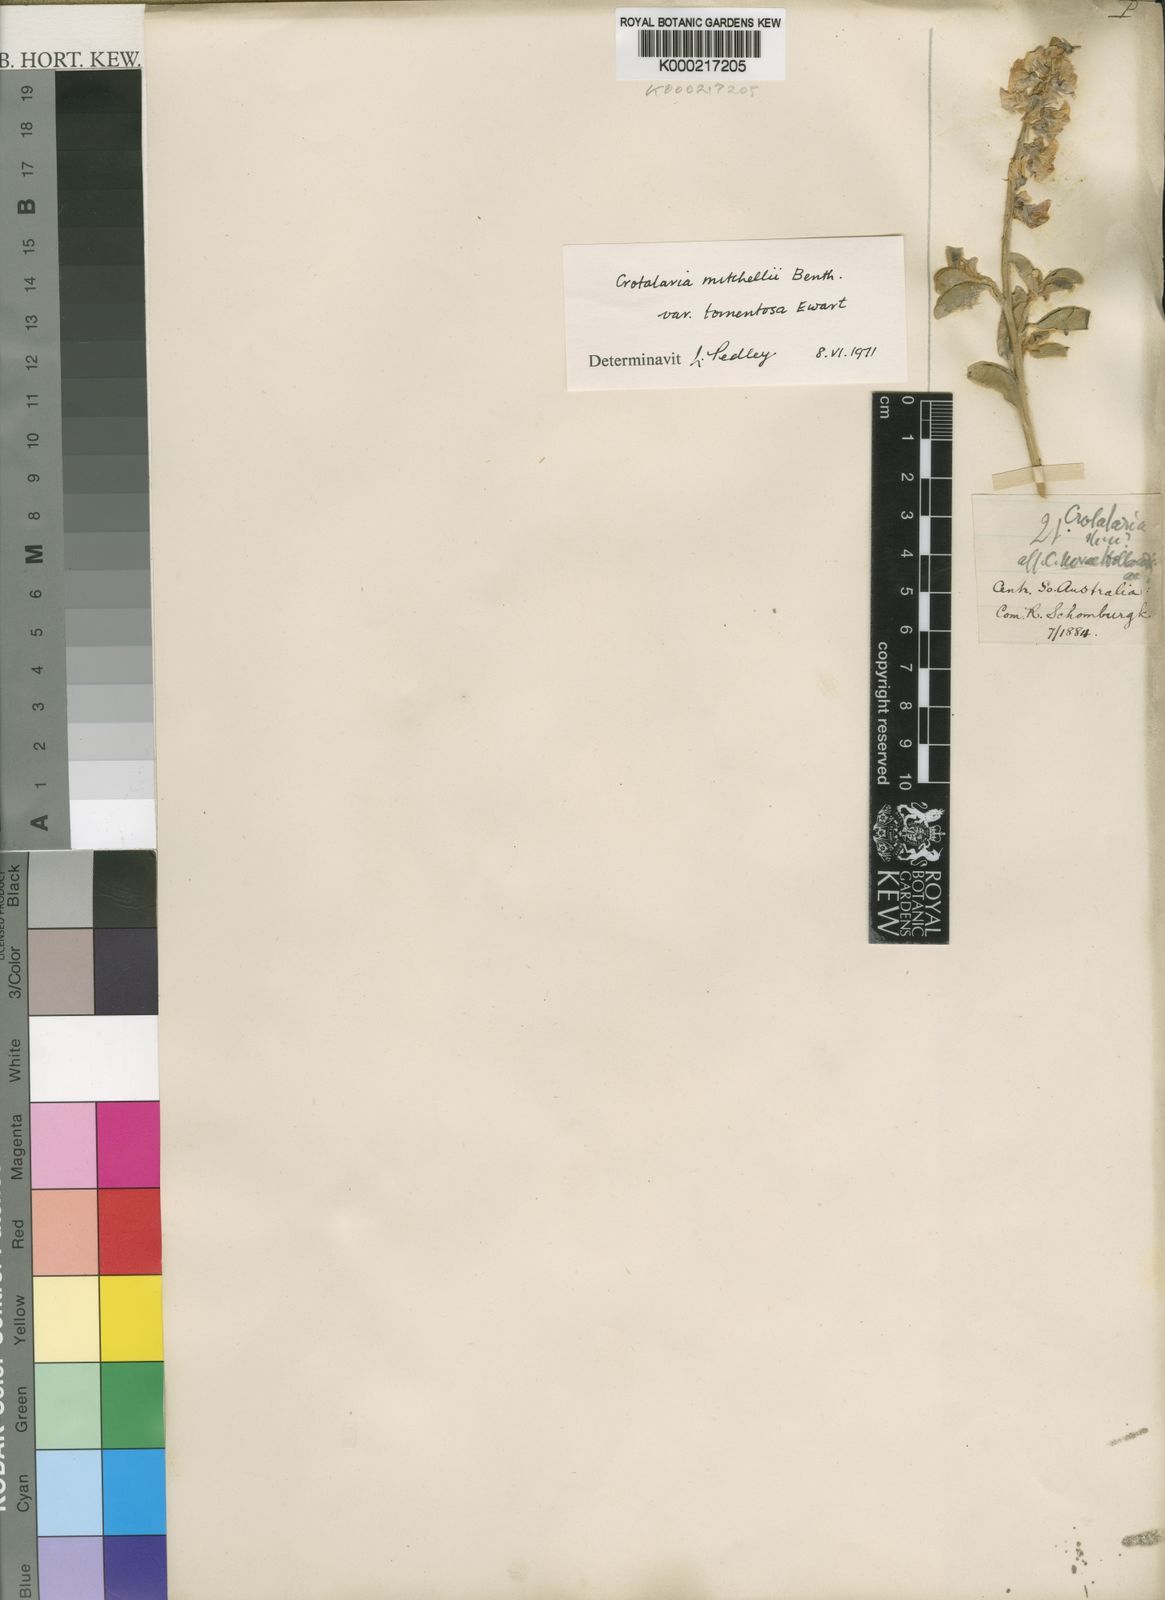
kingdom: Plantae
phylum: Tracheophyta
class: Magnoliopsida
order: Fabales
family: Fabaceae
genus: Crotalaria
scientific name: Crotalaria smithiana
